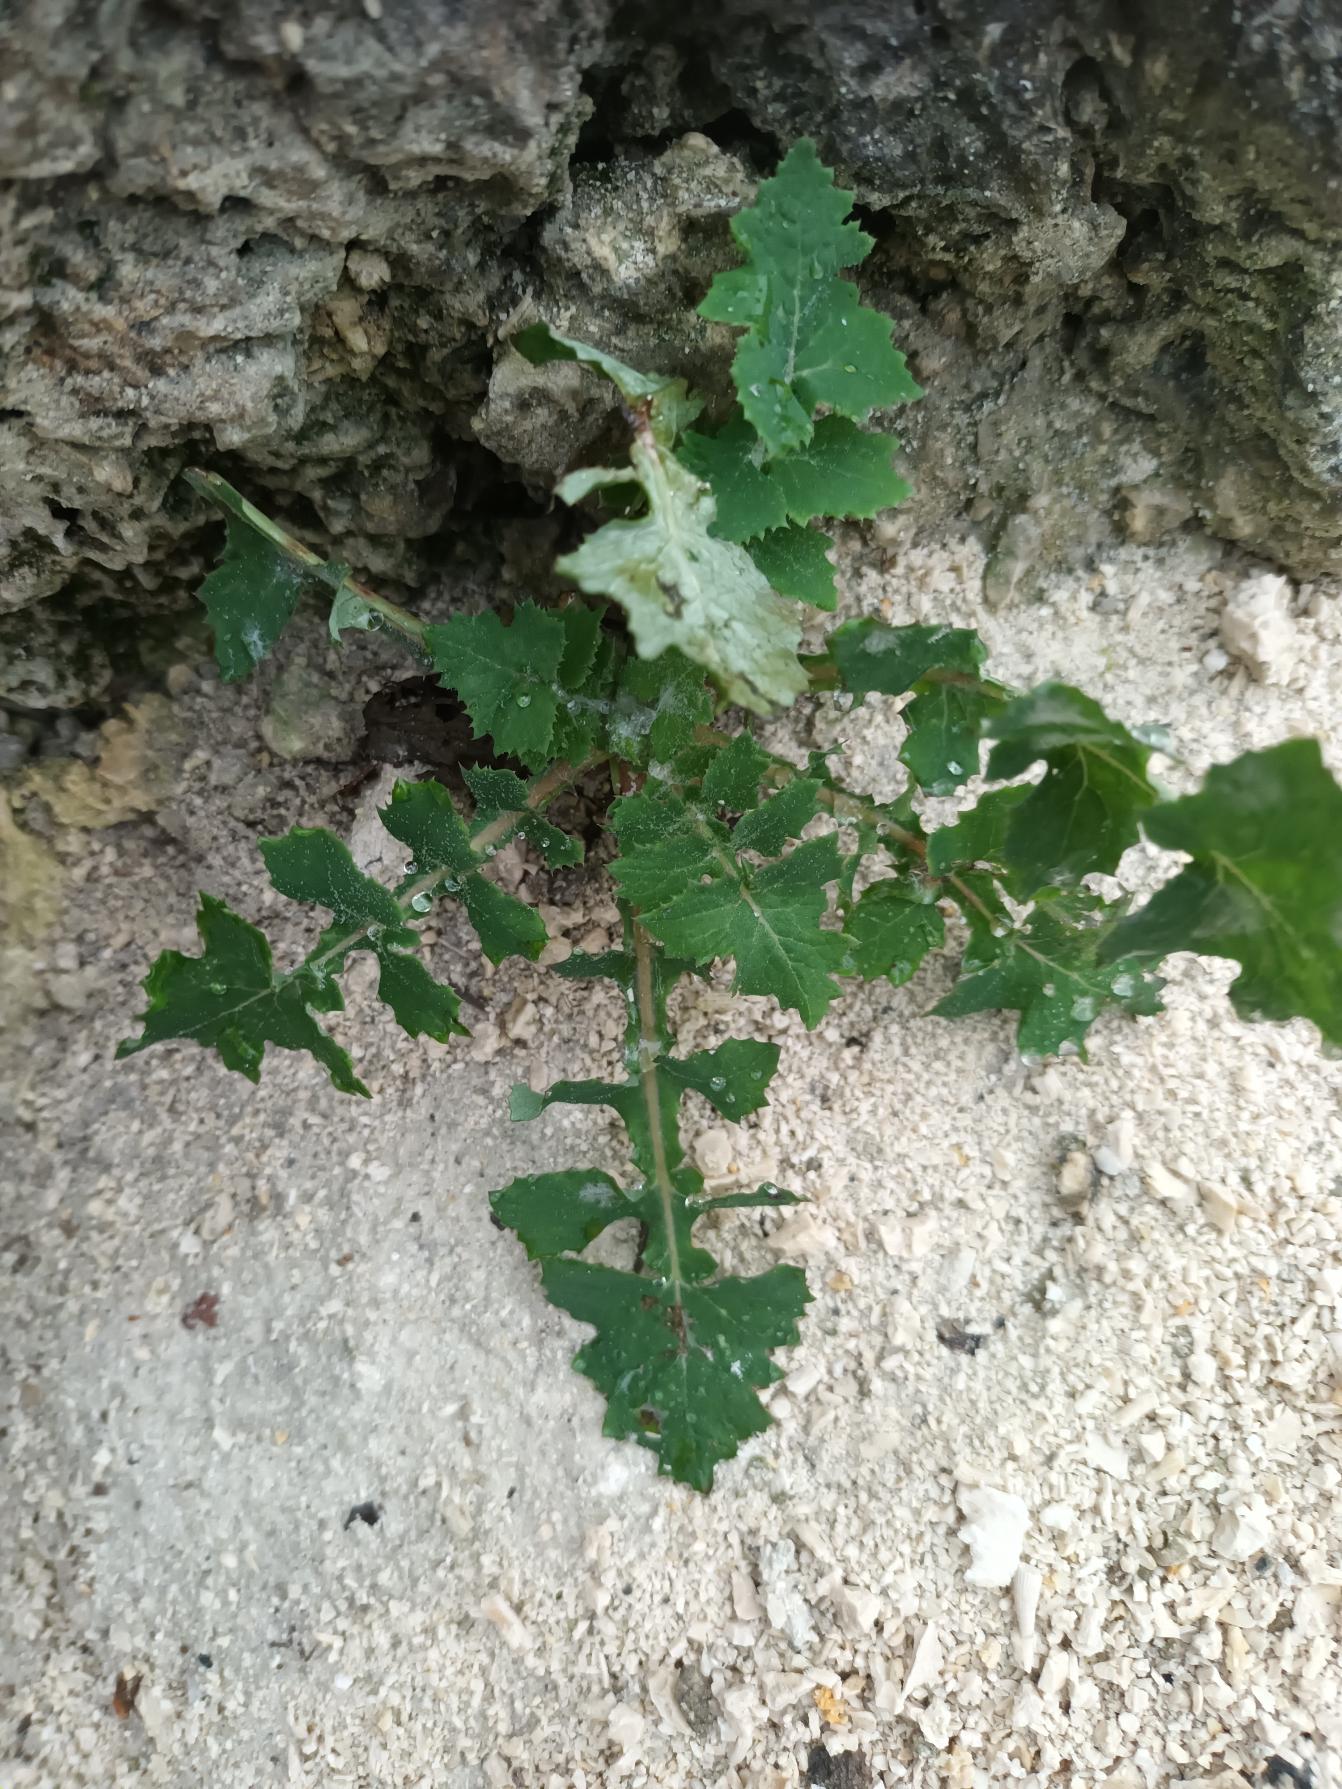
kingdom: Plantae
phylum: Tracheophyta
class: Magnoliopsida
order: Asterales
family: Asteraceae
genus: Sonchus
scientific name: Sonchus oleraceus
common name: Almindelig svinemælk
